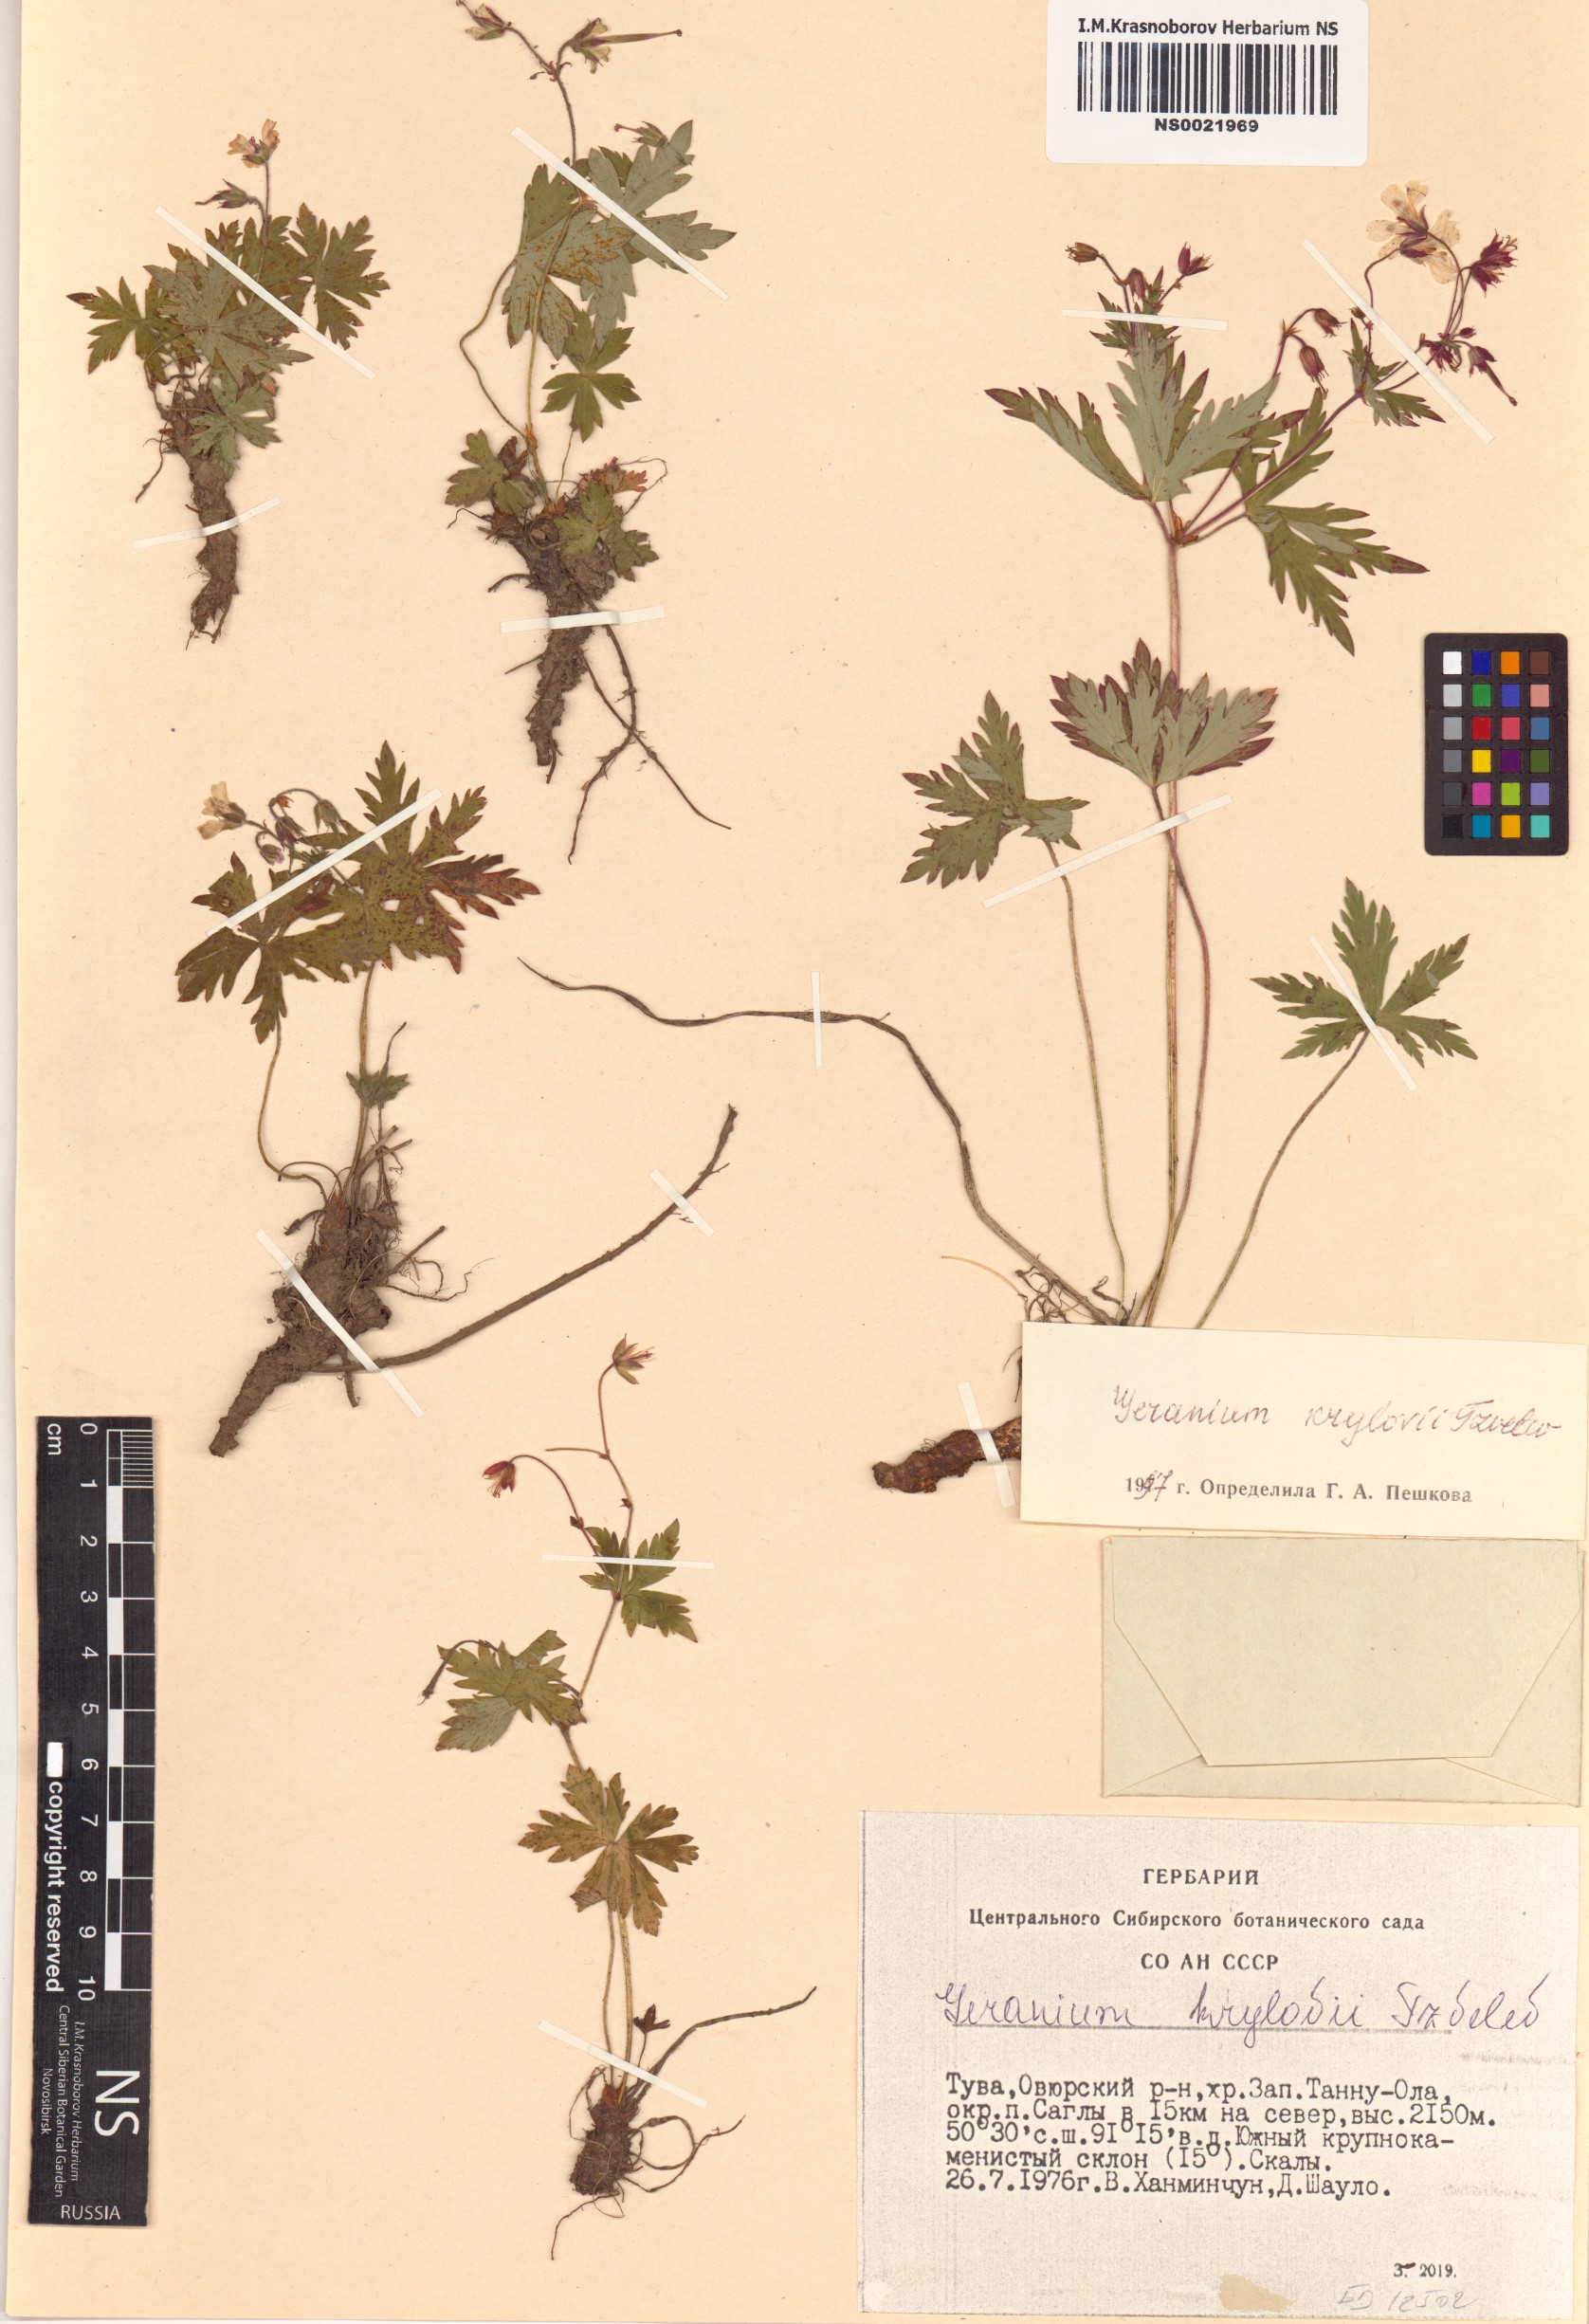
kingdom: Plantae
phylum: Tracheophyta
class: Magnoliopsida
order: Geraniales
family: Geraniaceae
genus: Geranium
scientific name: Geranium sylvaticum
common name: Wood crane's-bill
